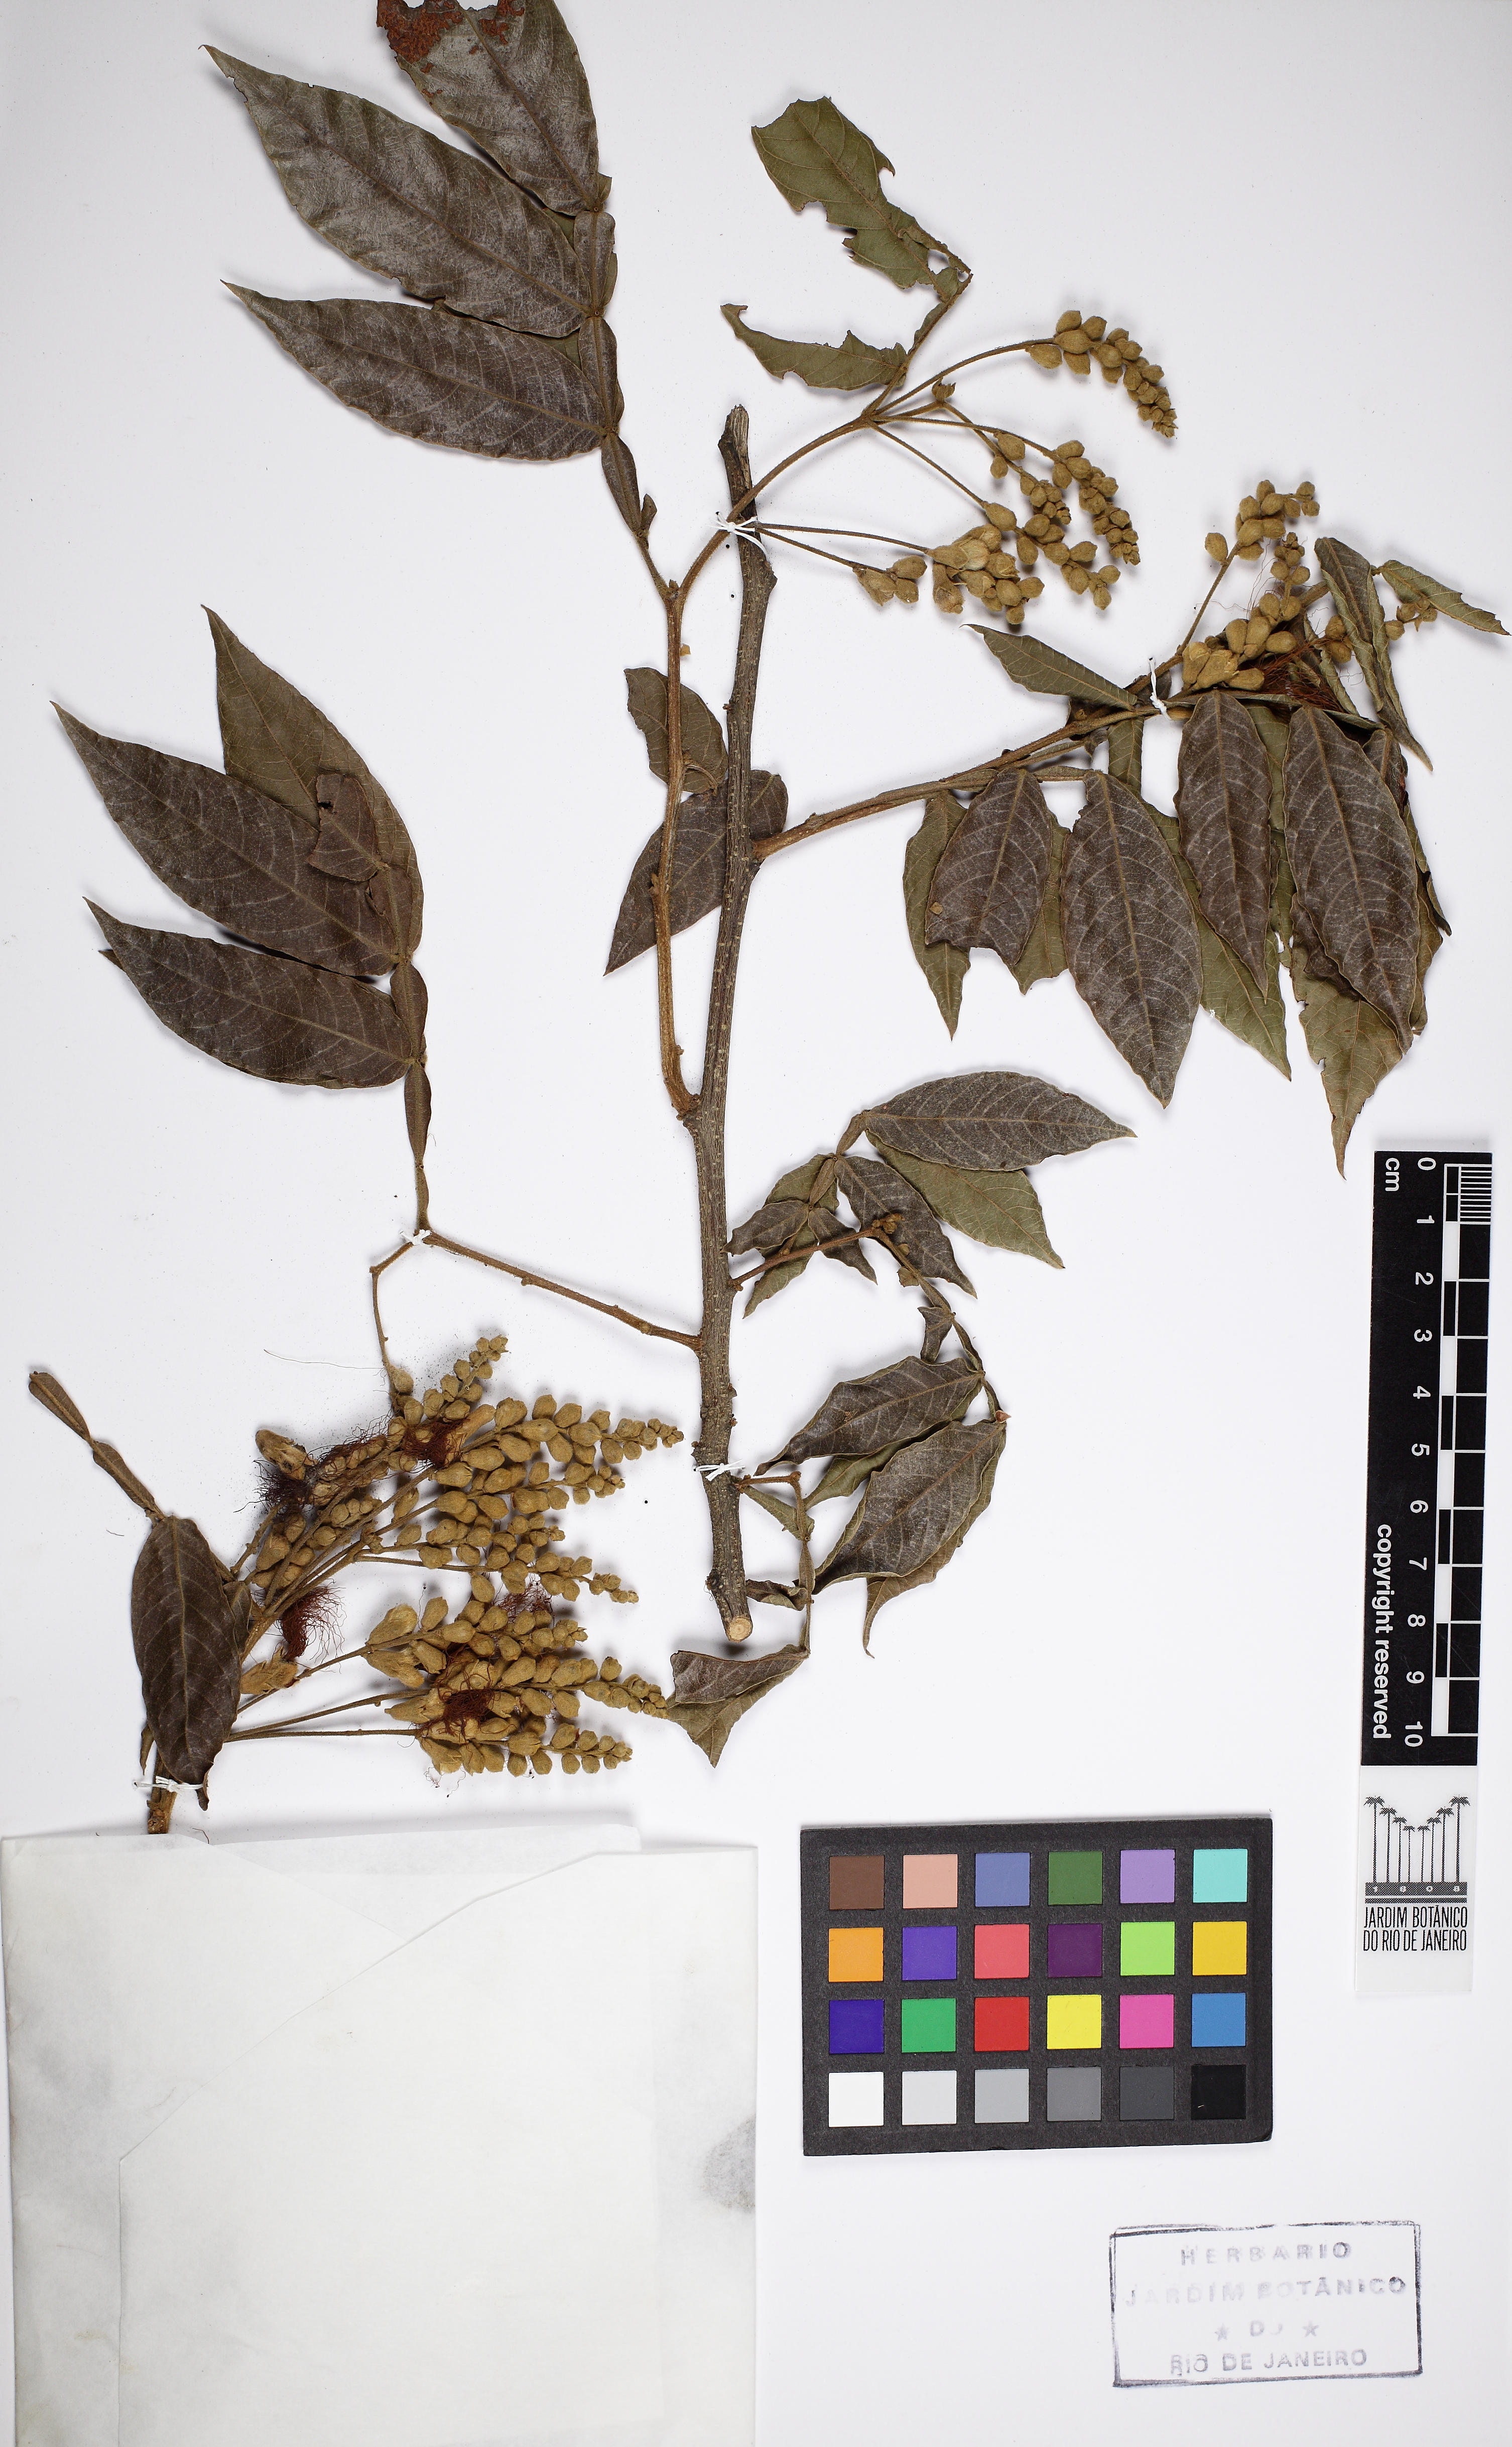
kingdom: Plantae
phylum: Tracheophyta
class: Magnoliopsida
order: Fabales
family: Fabaceae
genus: Inga
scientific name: Inga
